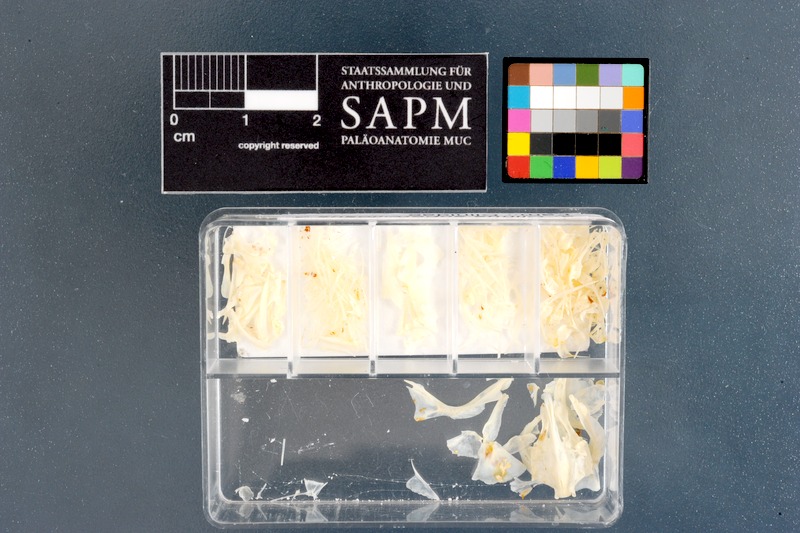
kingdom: Animalia
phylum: Chordata
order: Perciformes
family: Clinidae
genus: Clinus
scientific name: Clinus superciliosus
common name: Super klipfish
